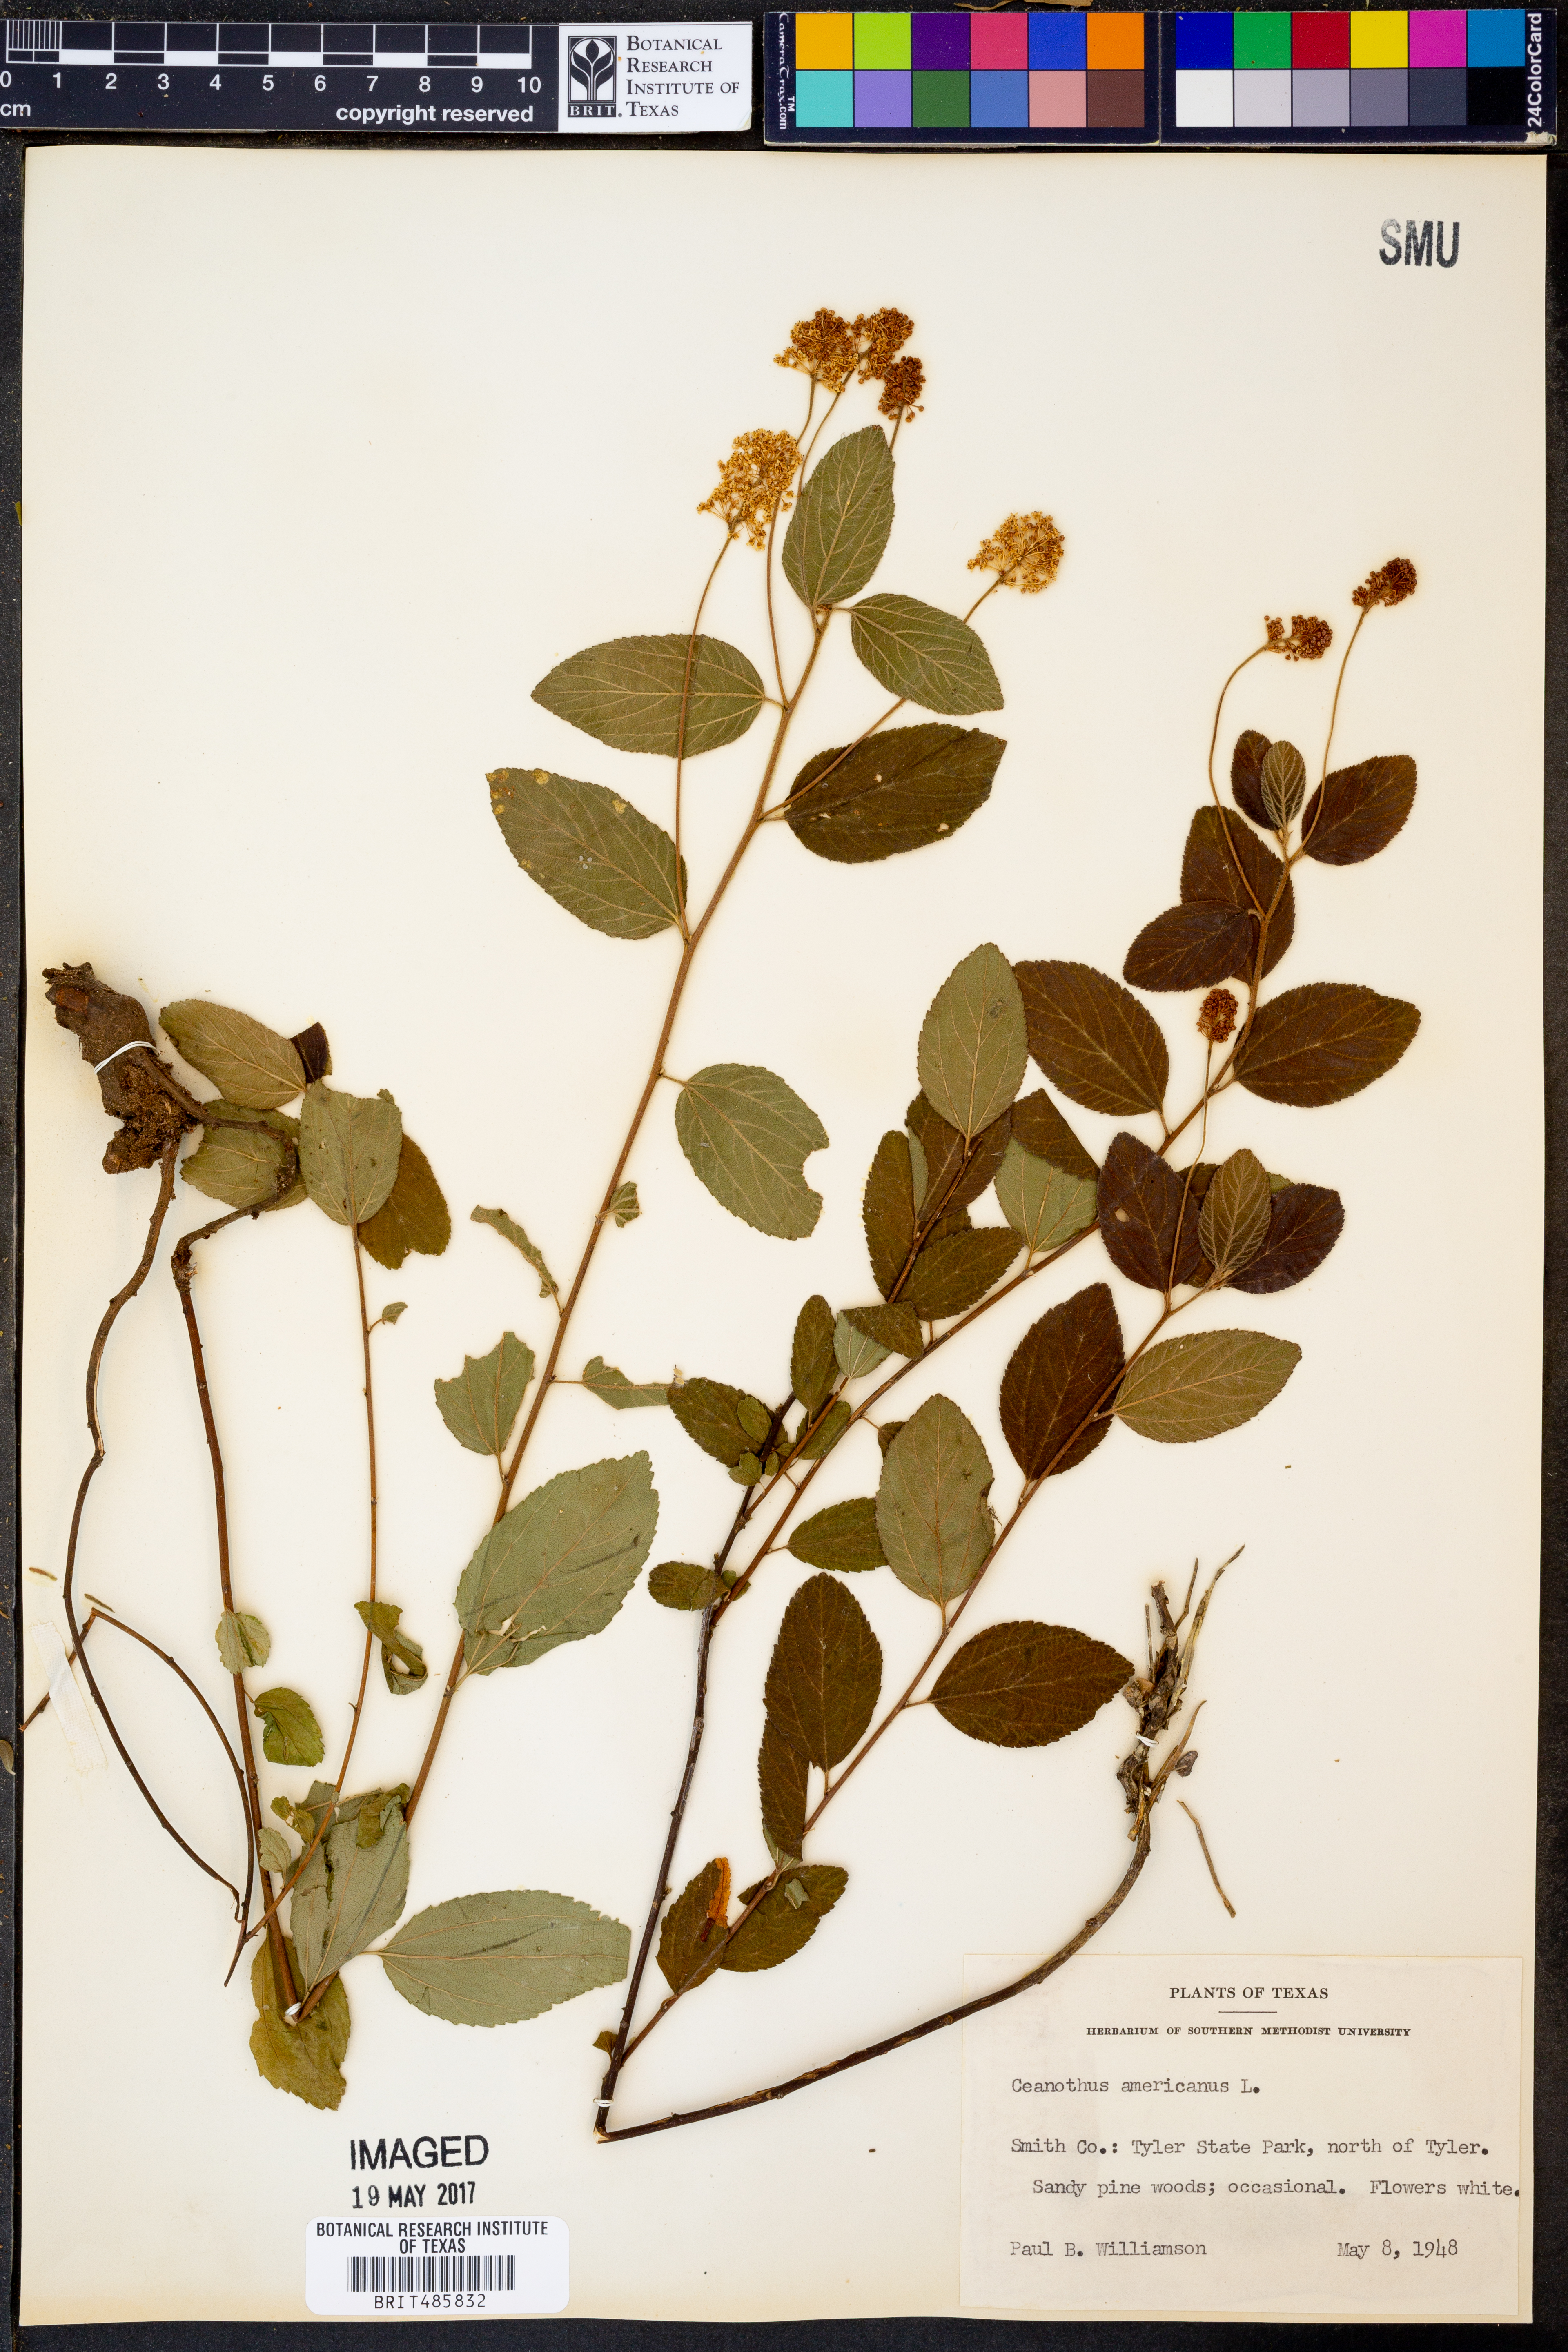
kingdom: Plantae
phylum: Tracheophyta
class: Magnoliopsida
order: Rosales
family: Rhamnaceae
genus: Ceanothus
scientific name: Ceanothus americanus
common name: Redroot
